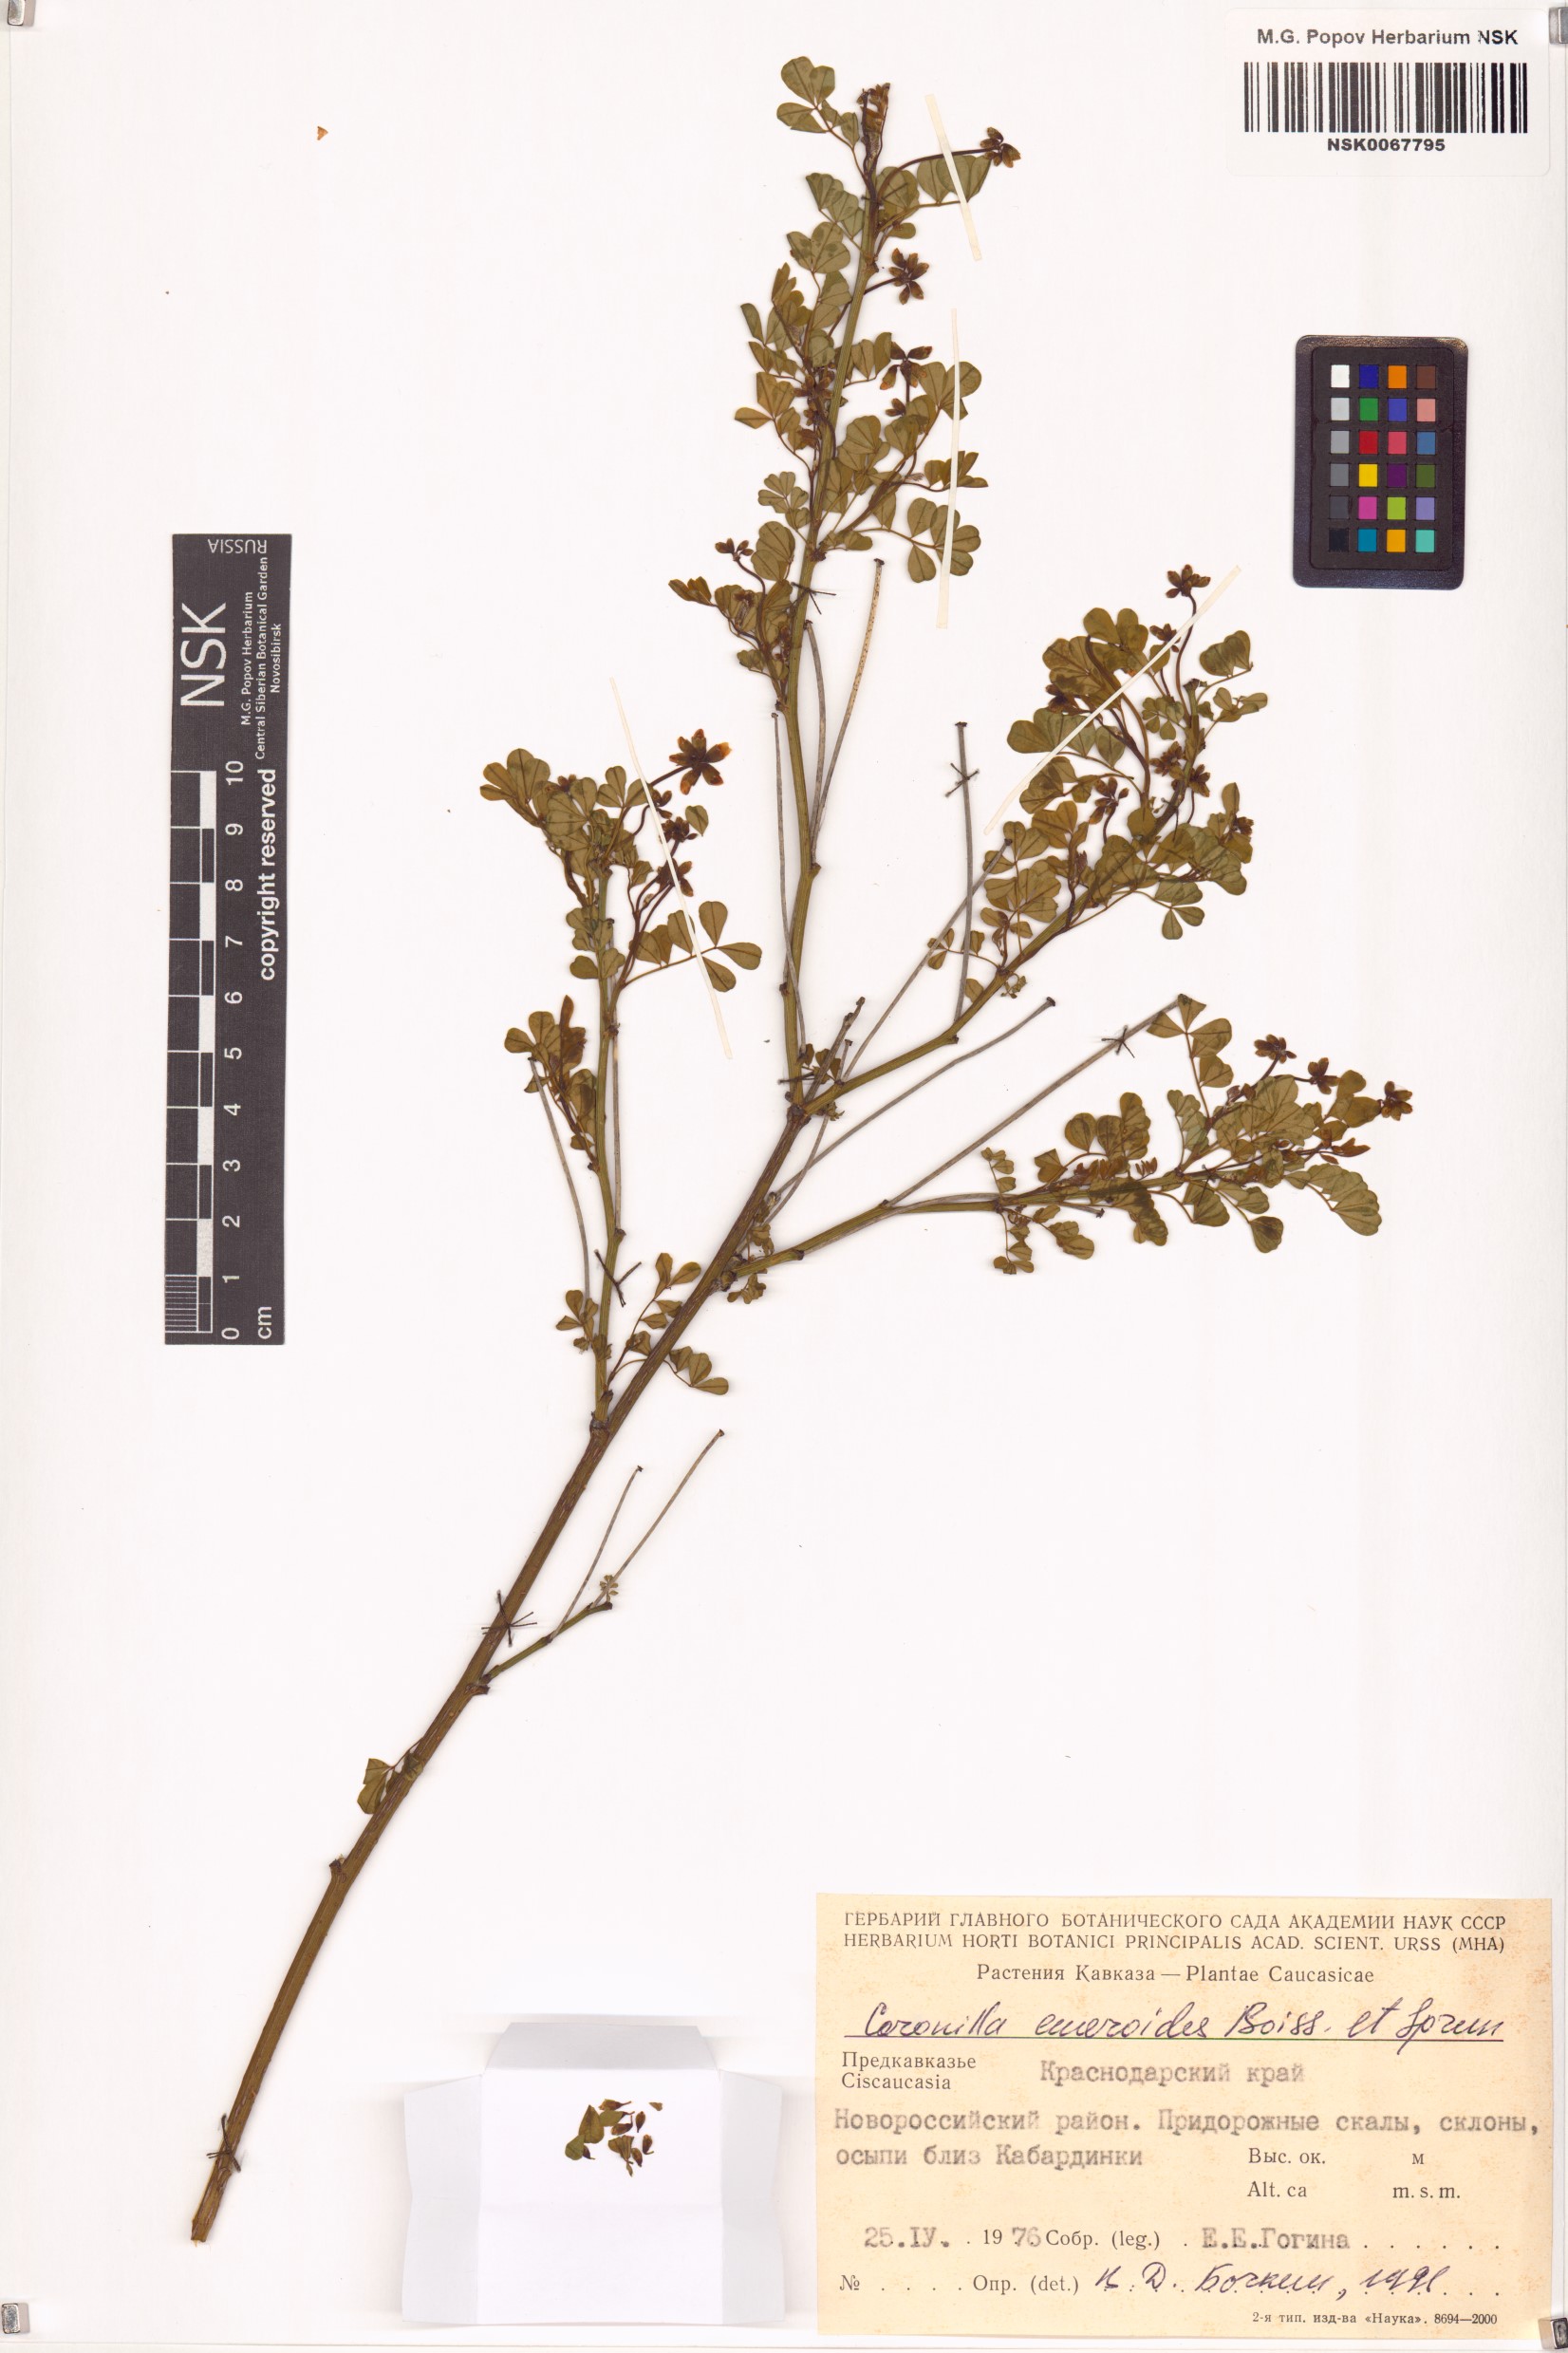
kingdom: Plantae
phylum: Tracheophyta
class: Magnoliopsida
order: Fabales
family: Fabaceae
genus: Hippocrepis
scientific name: Hippocrepis emerus
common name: Scorpion senna
